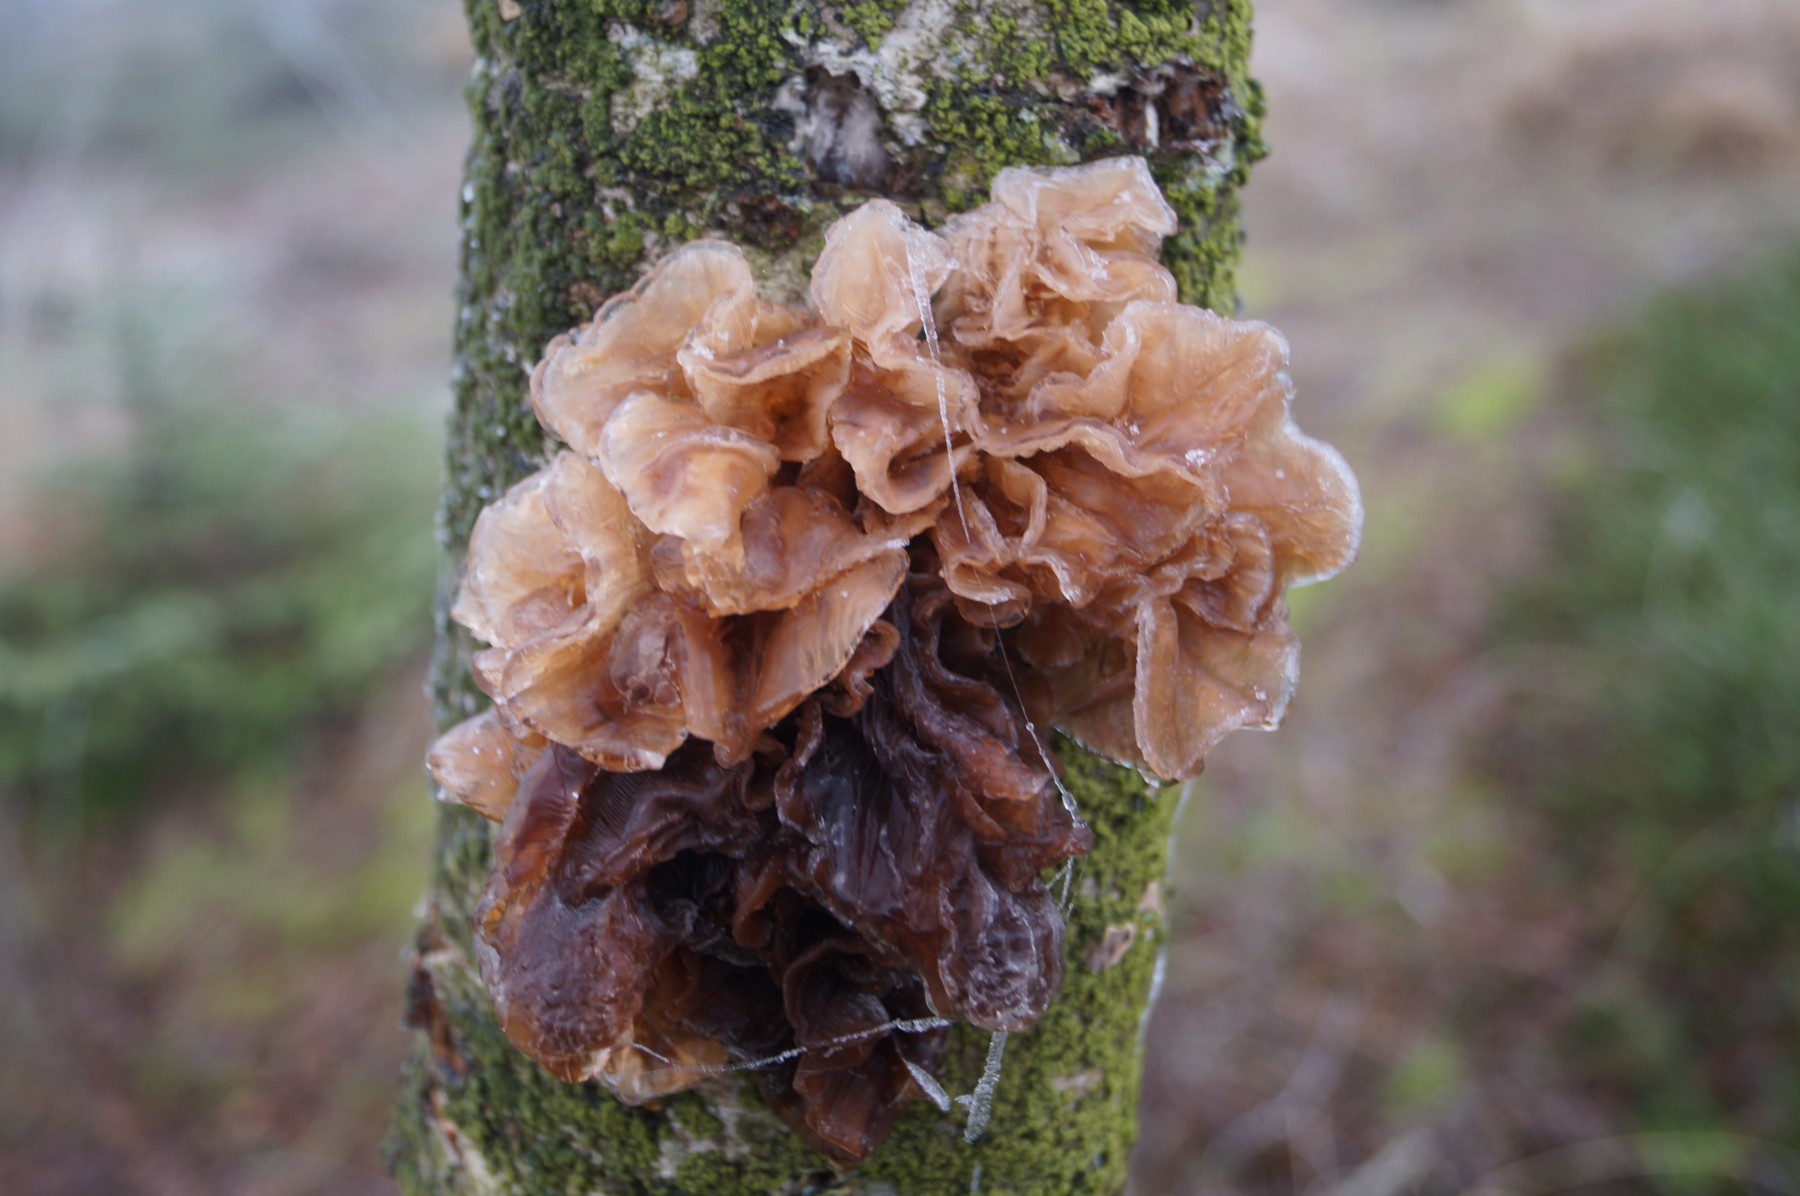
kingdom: Fungi
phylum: Basidiomycota
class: Tremellomycetes
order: Tremellales
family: Tremellaceae
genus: Phaeotremella
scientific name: Phaeotremella frondosa
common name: kæmpe-bævresvamp
